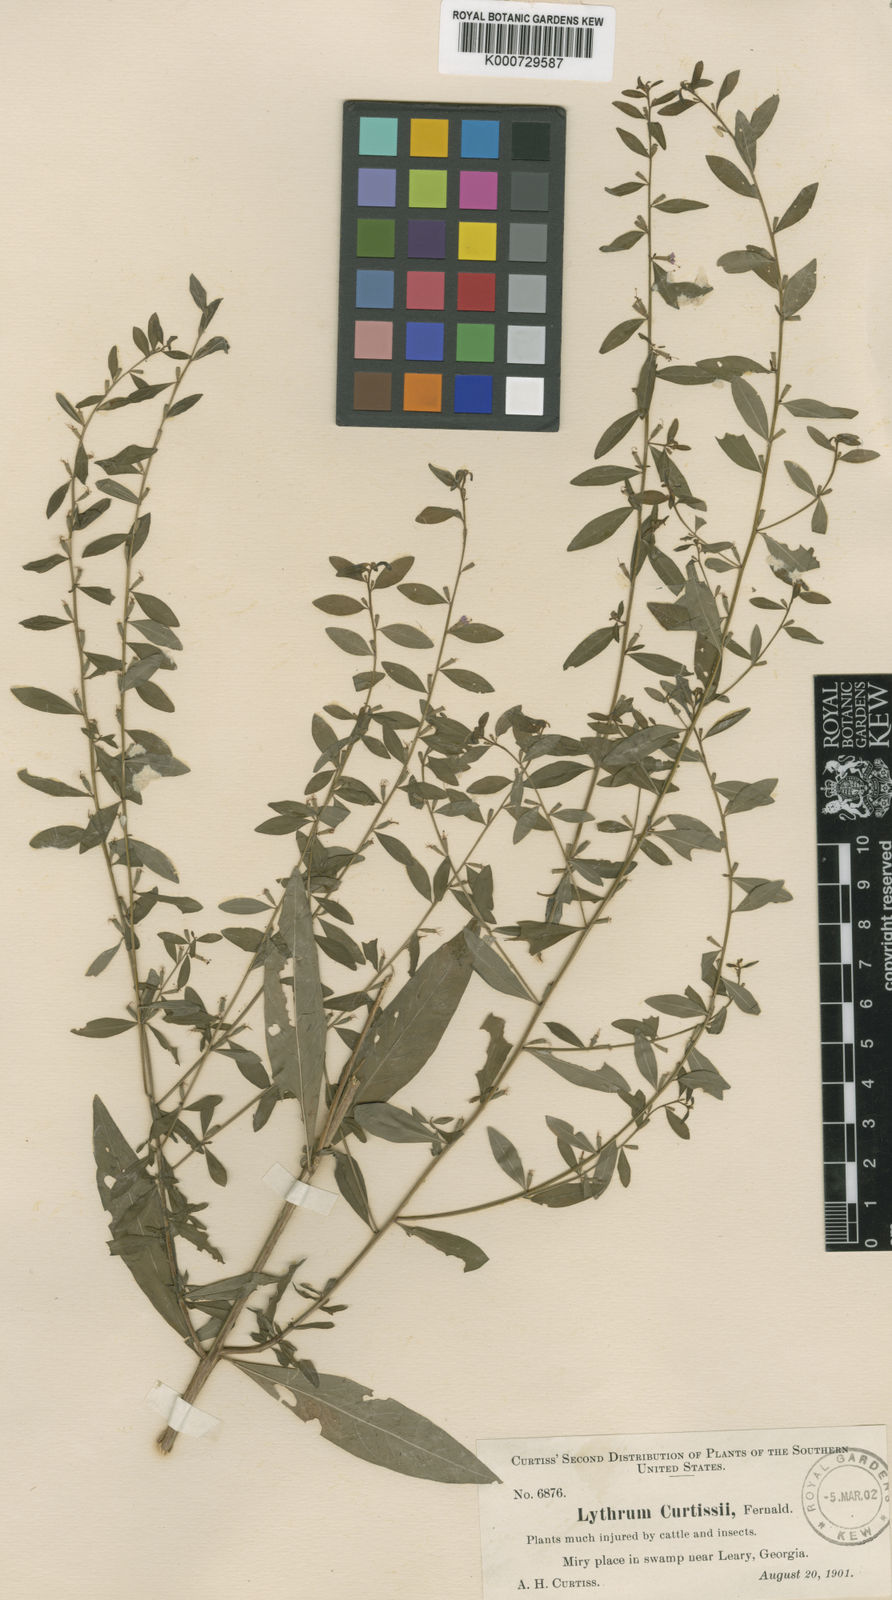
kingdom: Plantae
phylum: Tracheophyta
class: Magnoliopsida
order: Myrtales
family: Lythraceae
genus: Lythrum
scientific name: Lythrum curtissii
